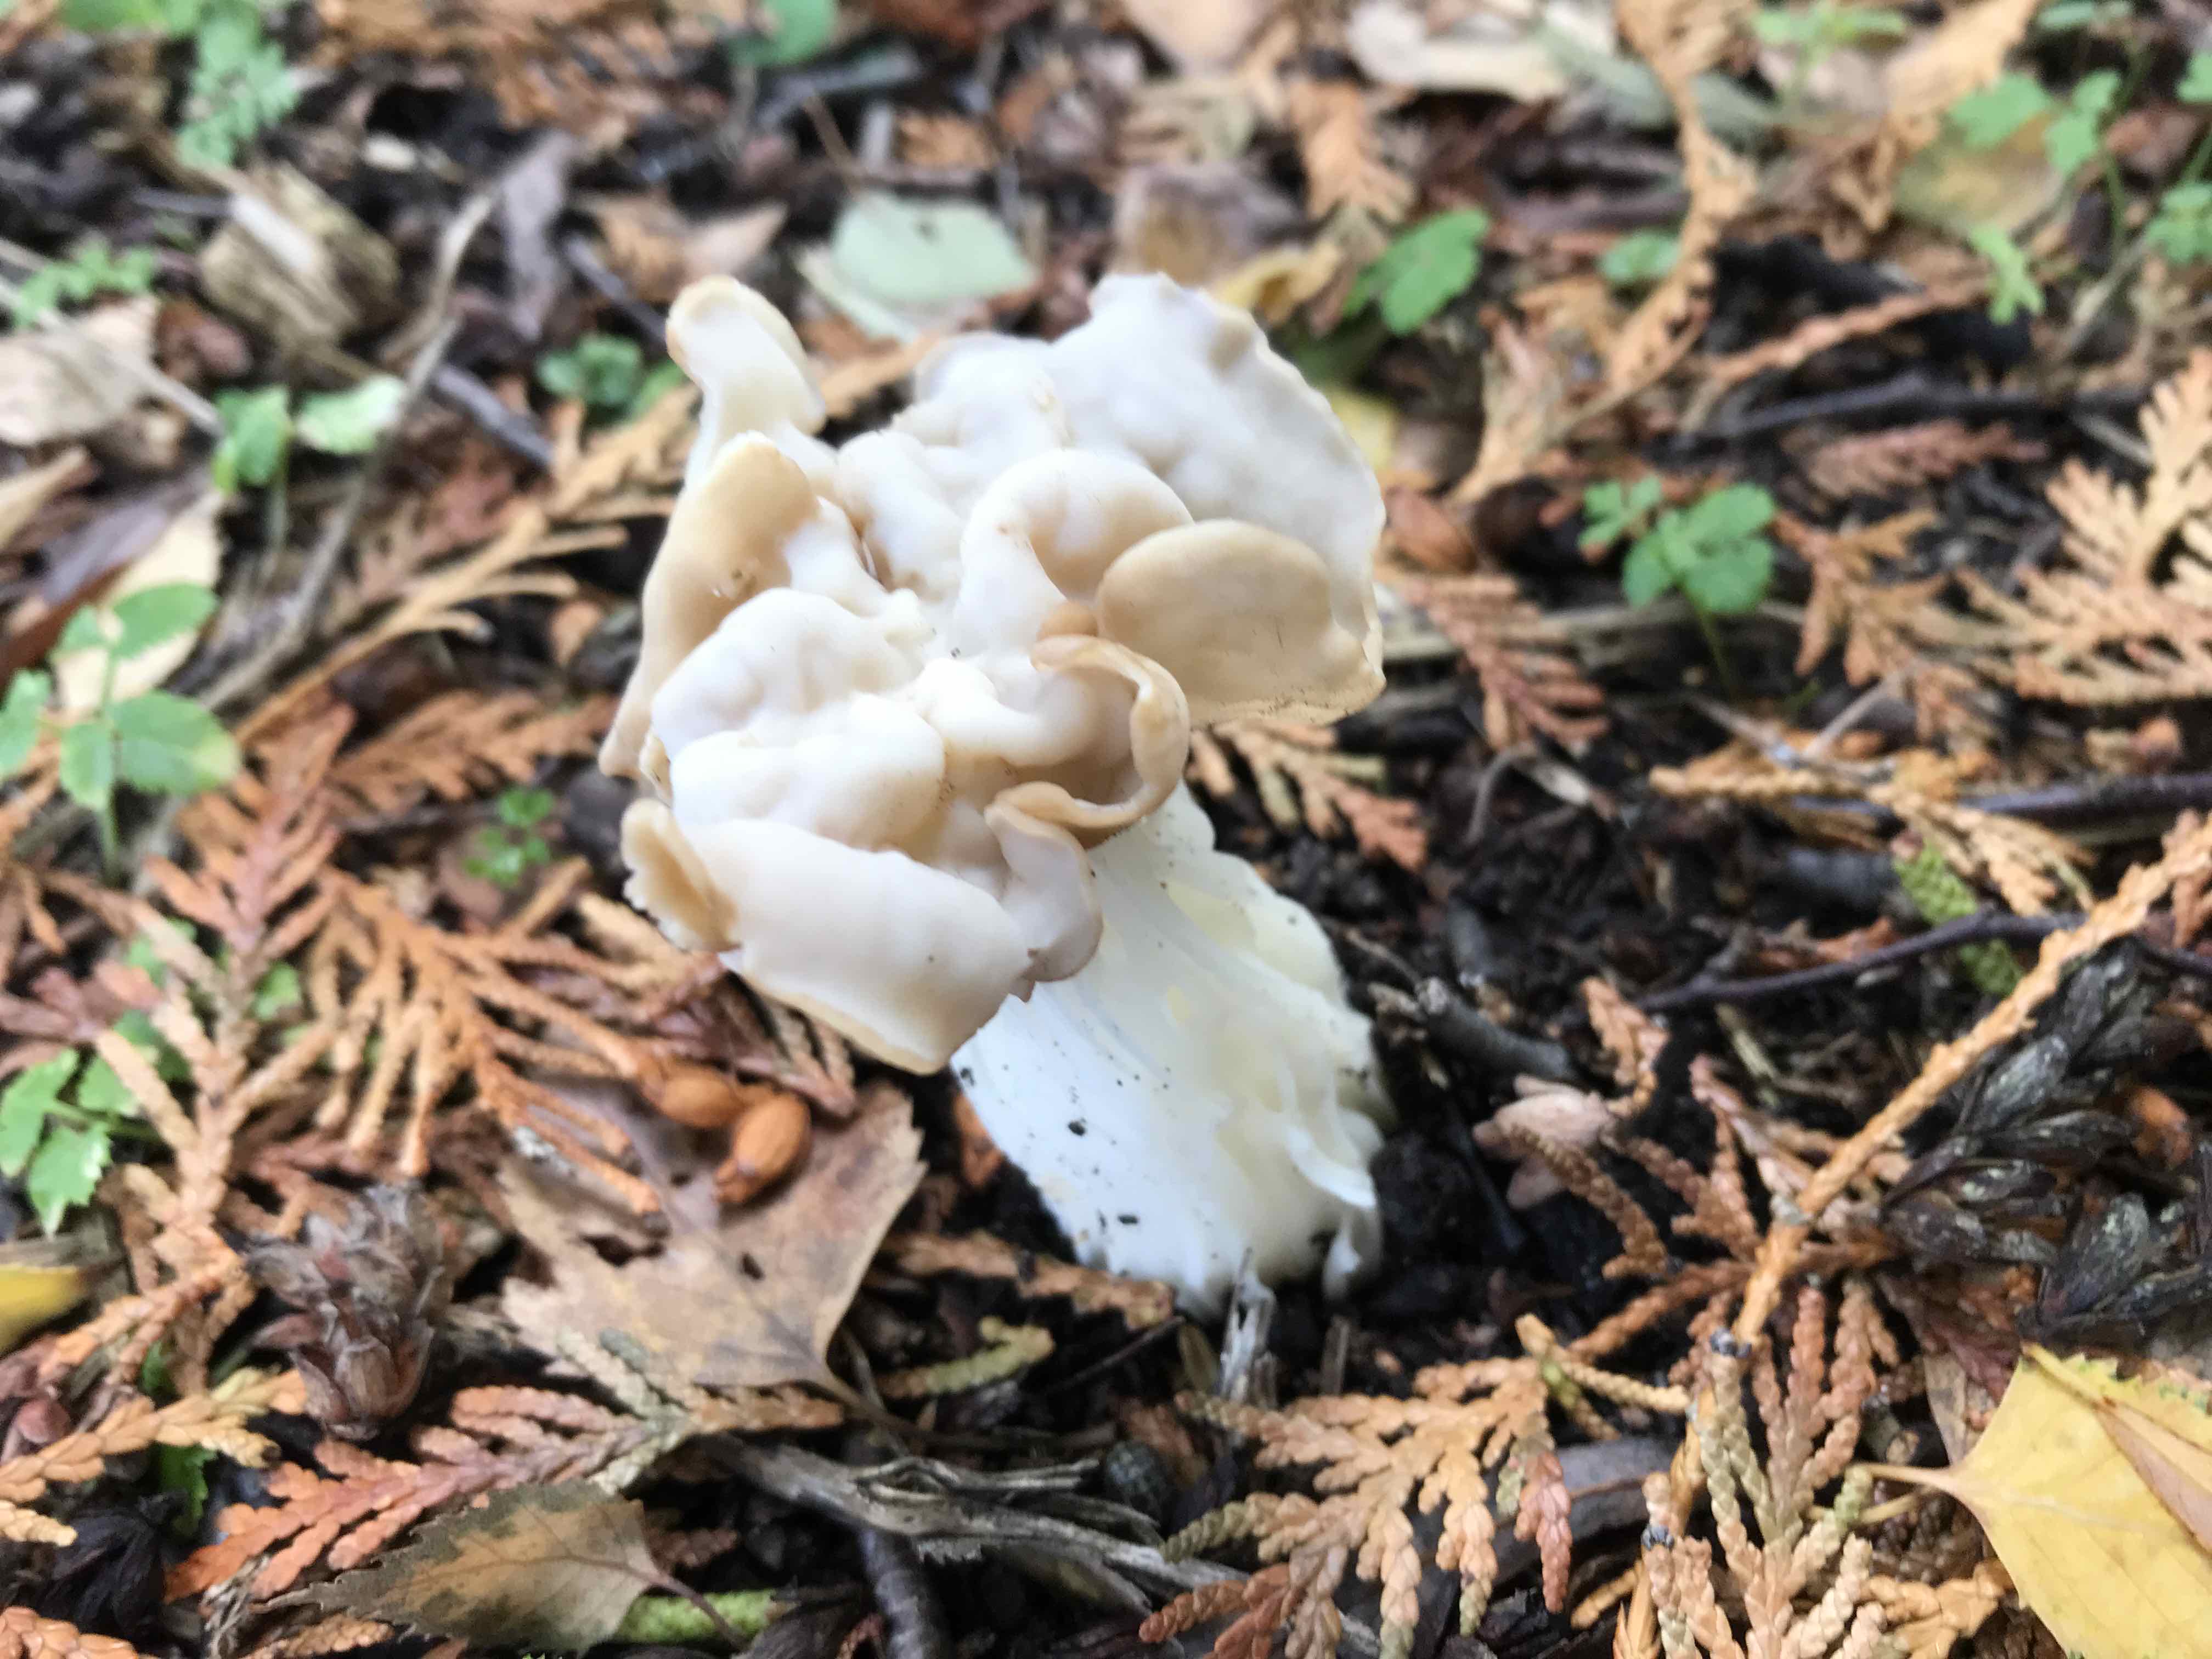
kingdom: Fungi
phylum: Ascomycota
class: Pezizomycetes
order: Pezizales
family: Helvellaceae
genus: Helvella
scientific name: Helvella crispa
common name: kruset foldhat
